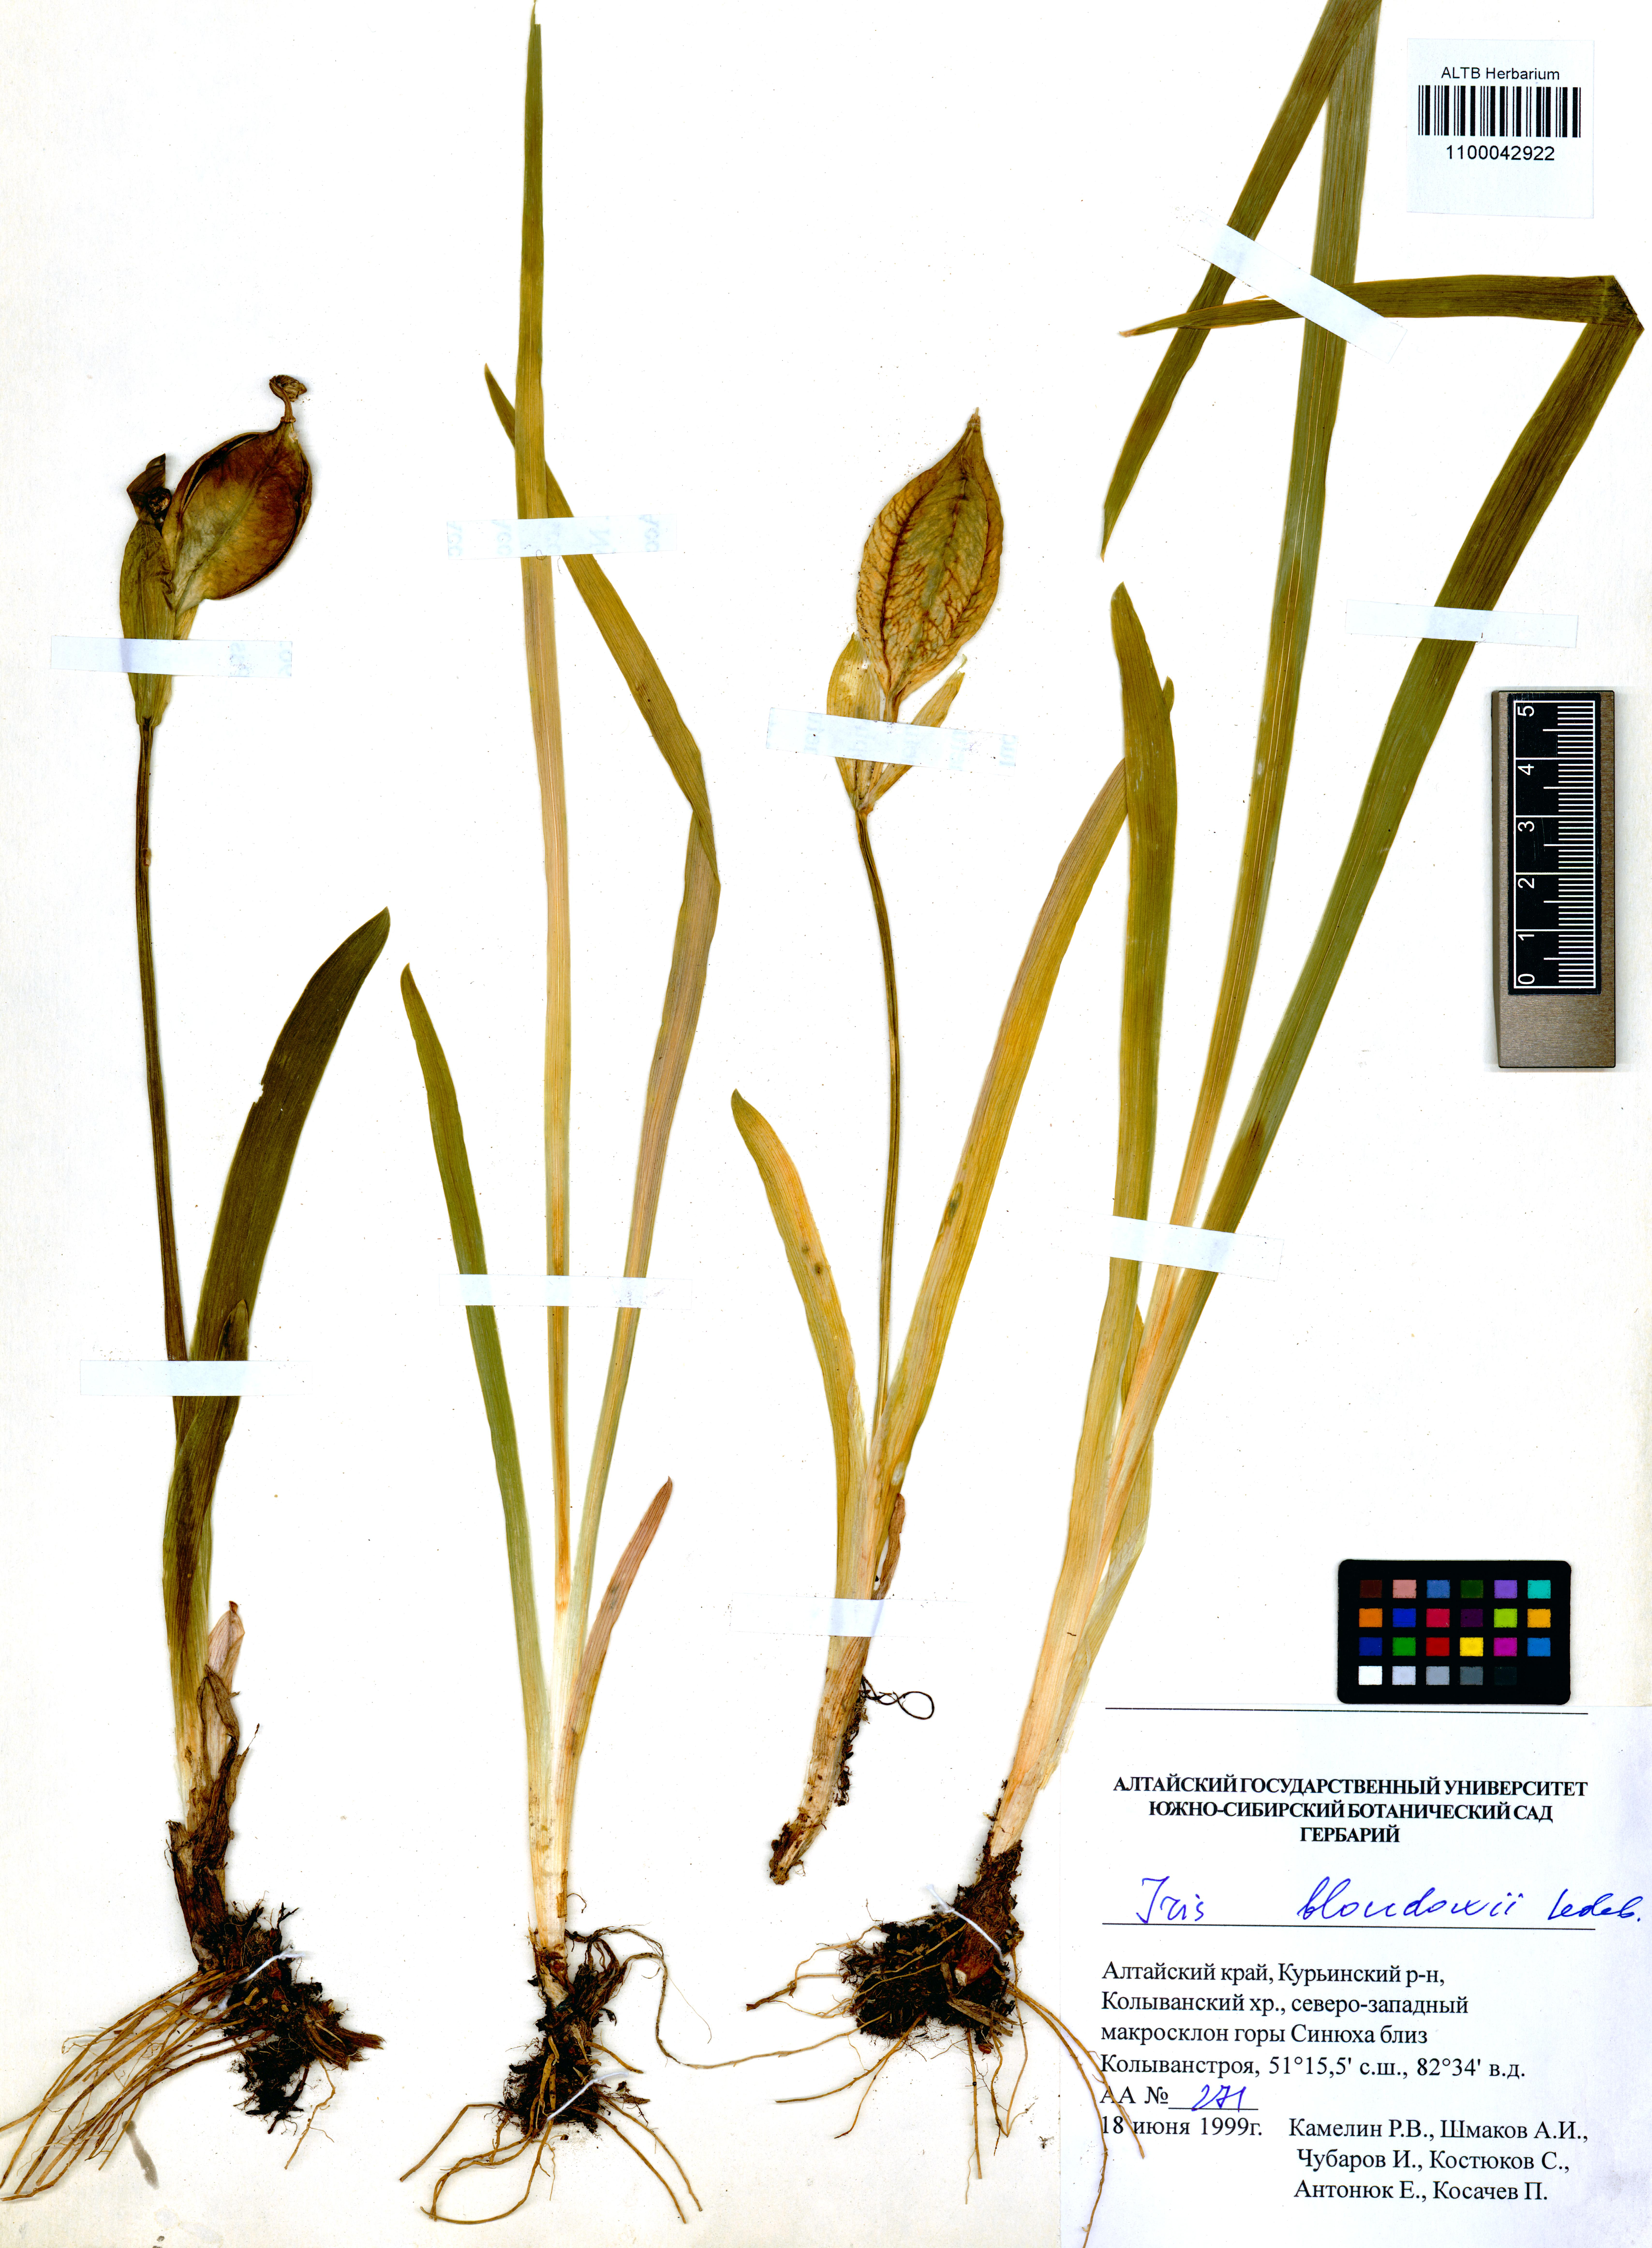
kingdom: Plantae
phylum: Tracheophyta
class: Liliopsida
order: Asparagales
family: Iridaceae
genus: Iris
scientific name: Iris bloudowii
